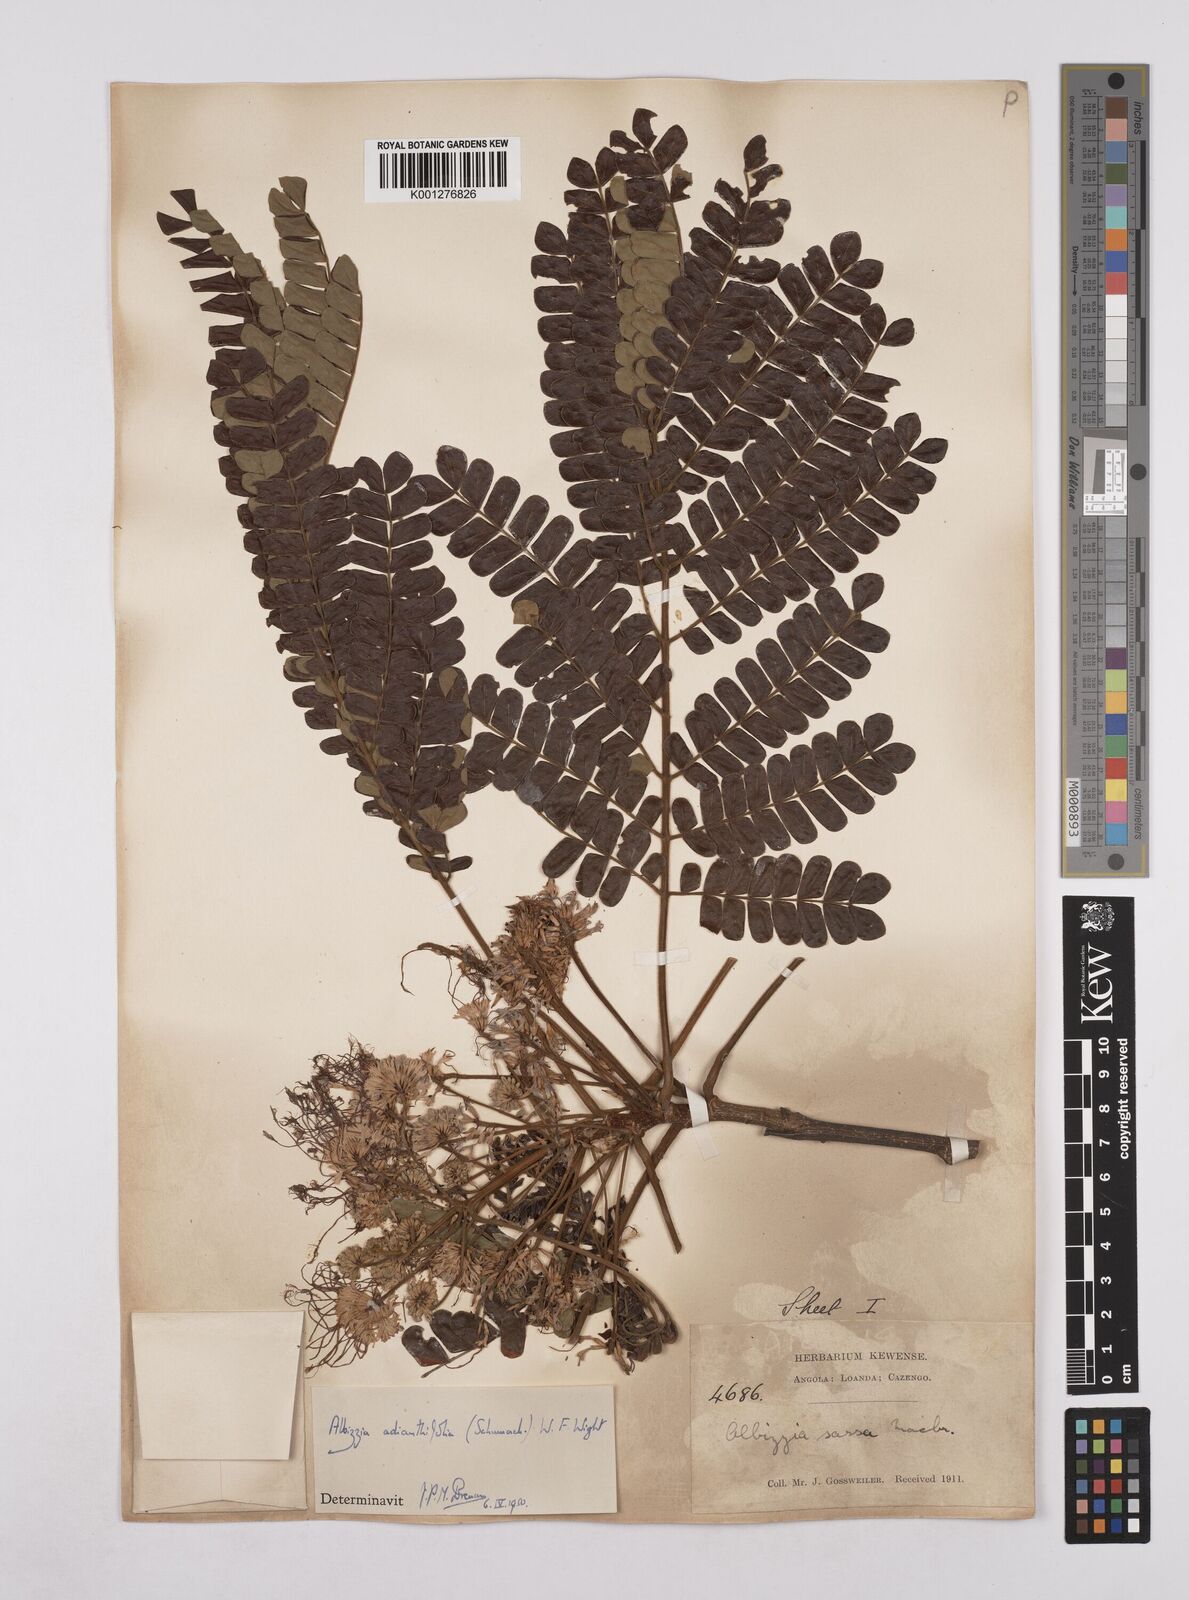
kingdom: Plantae
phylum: Tracheophyta
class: Magnoliopsida
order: Fabales
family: Fabaceae
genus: Albizia
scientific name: Albizia adianthifolia
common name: West african albizia
